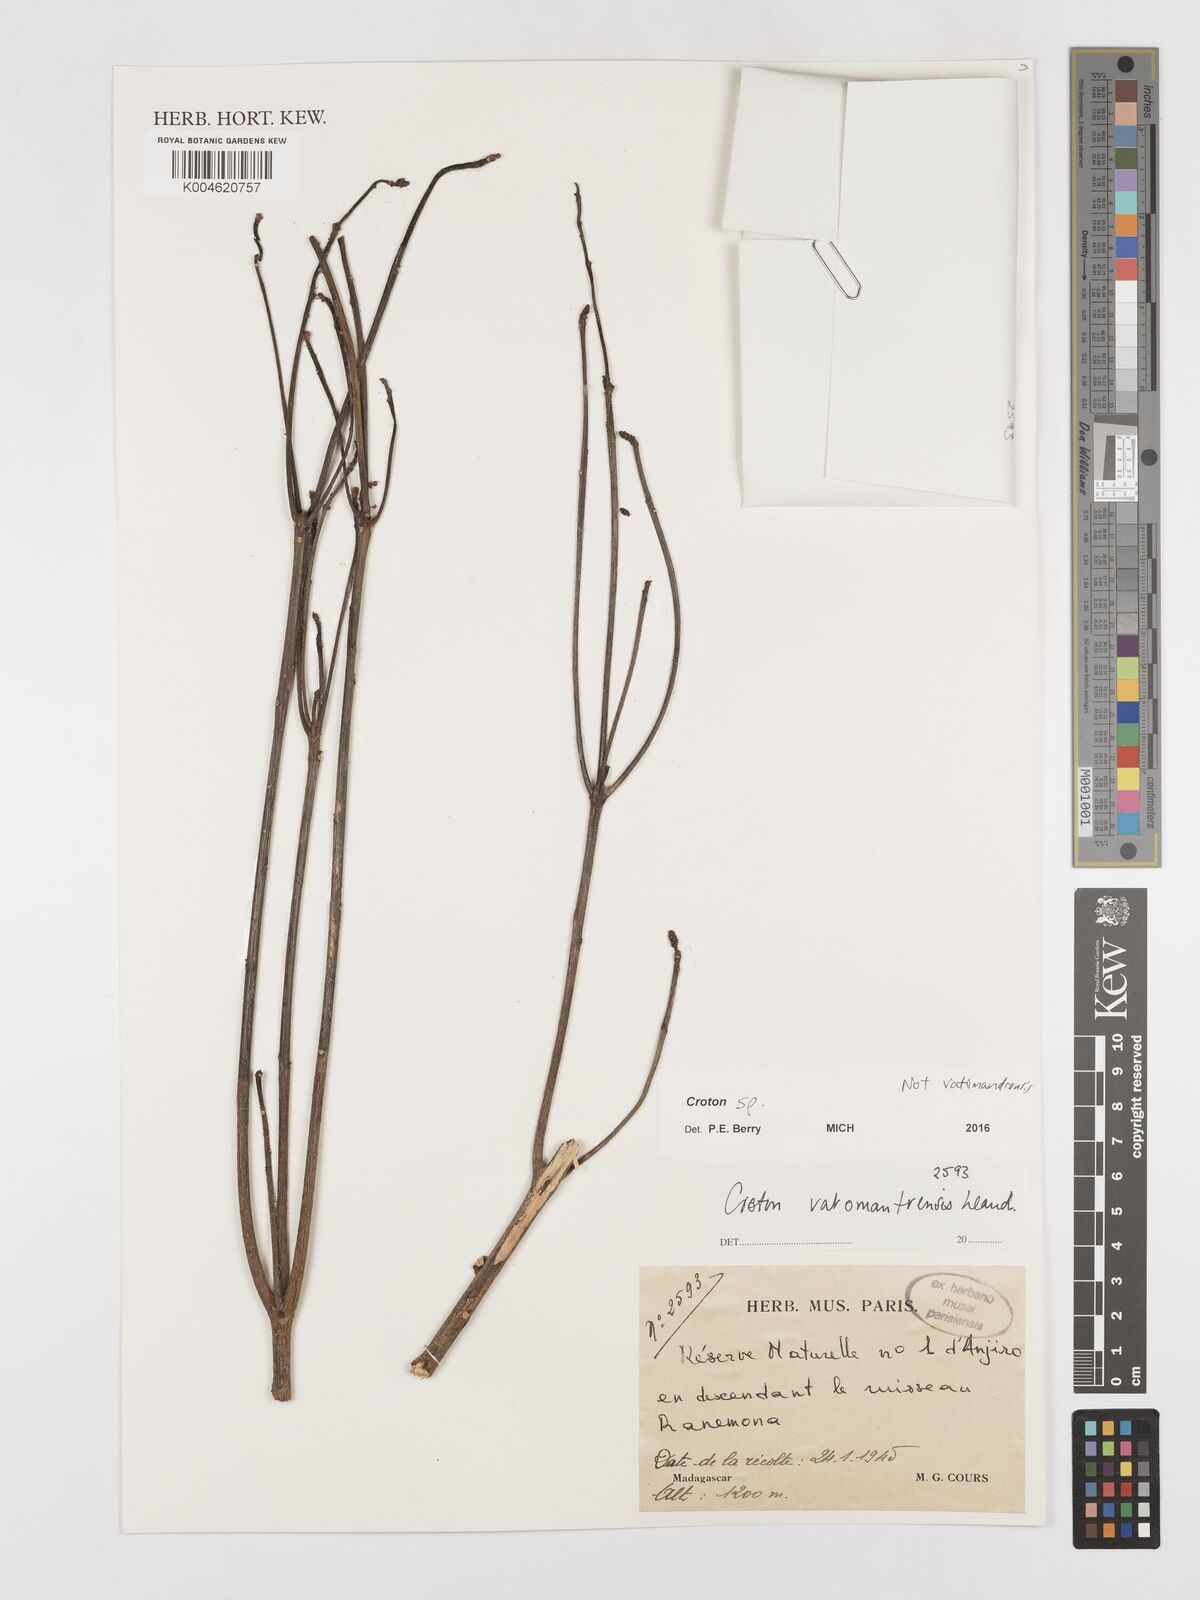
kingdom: Plantae
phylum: Tracheophyta
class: Magnoliopsida
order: Malpighiales
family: Euphorbiaceae
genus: Croton
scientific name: Croton
